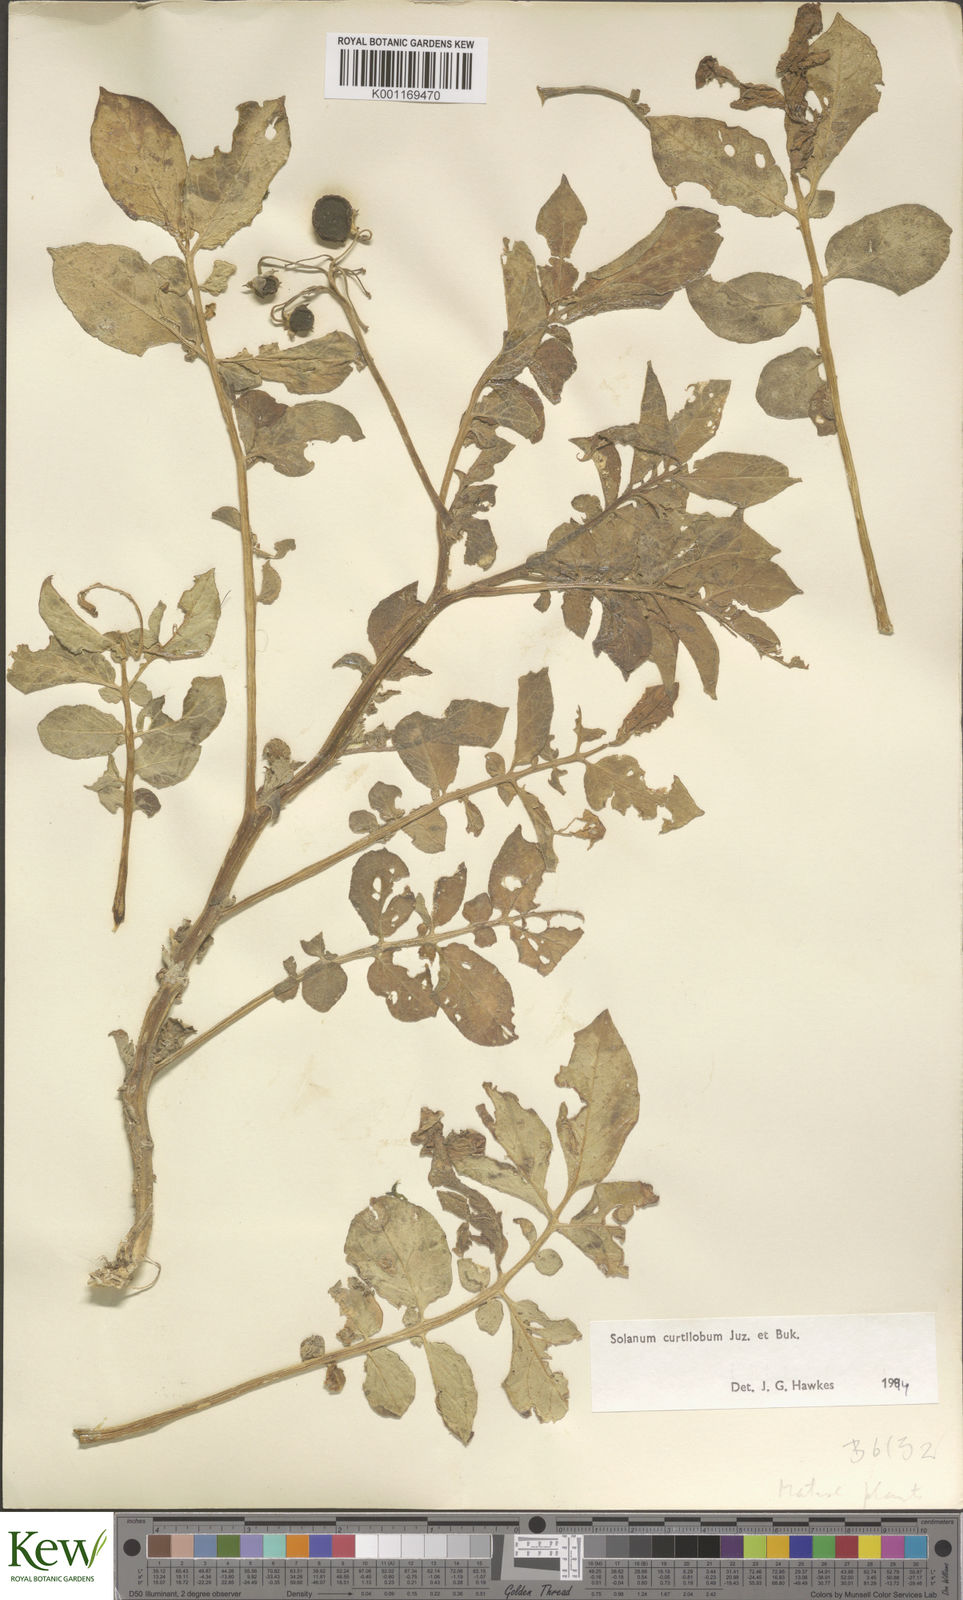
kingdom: Plantae
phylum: Tracheophyta
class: Magnoliopsida
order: Solanales
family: Solanaceae
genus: Solanum
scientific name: Solanum curtilobum
